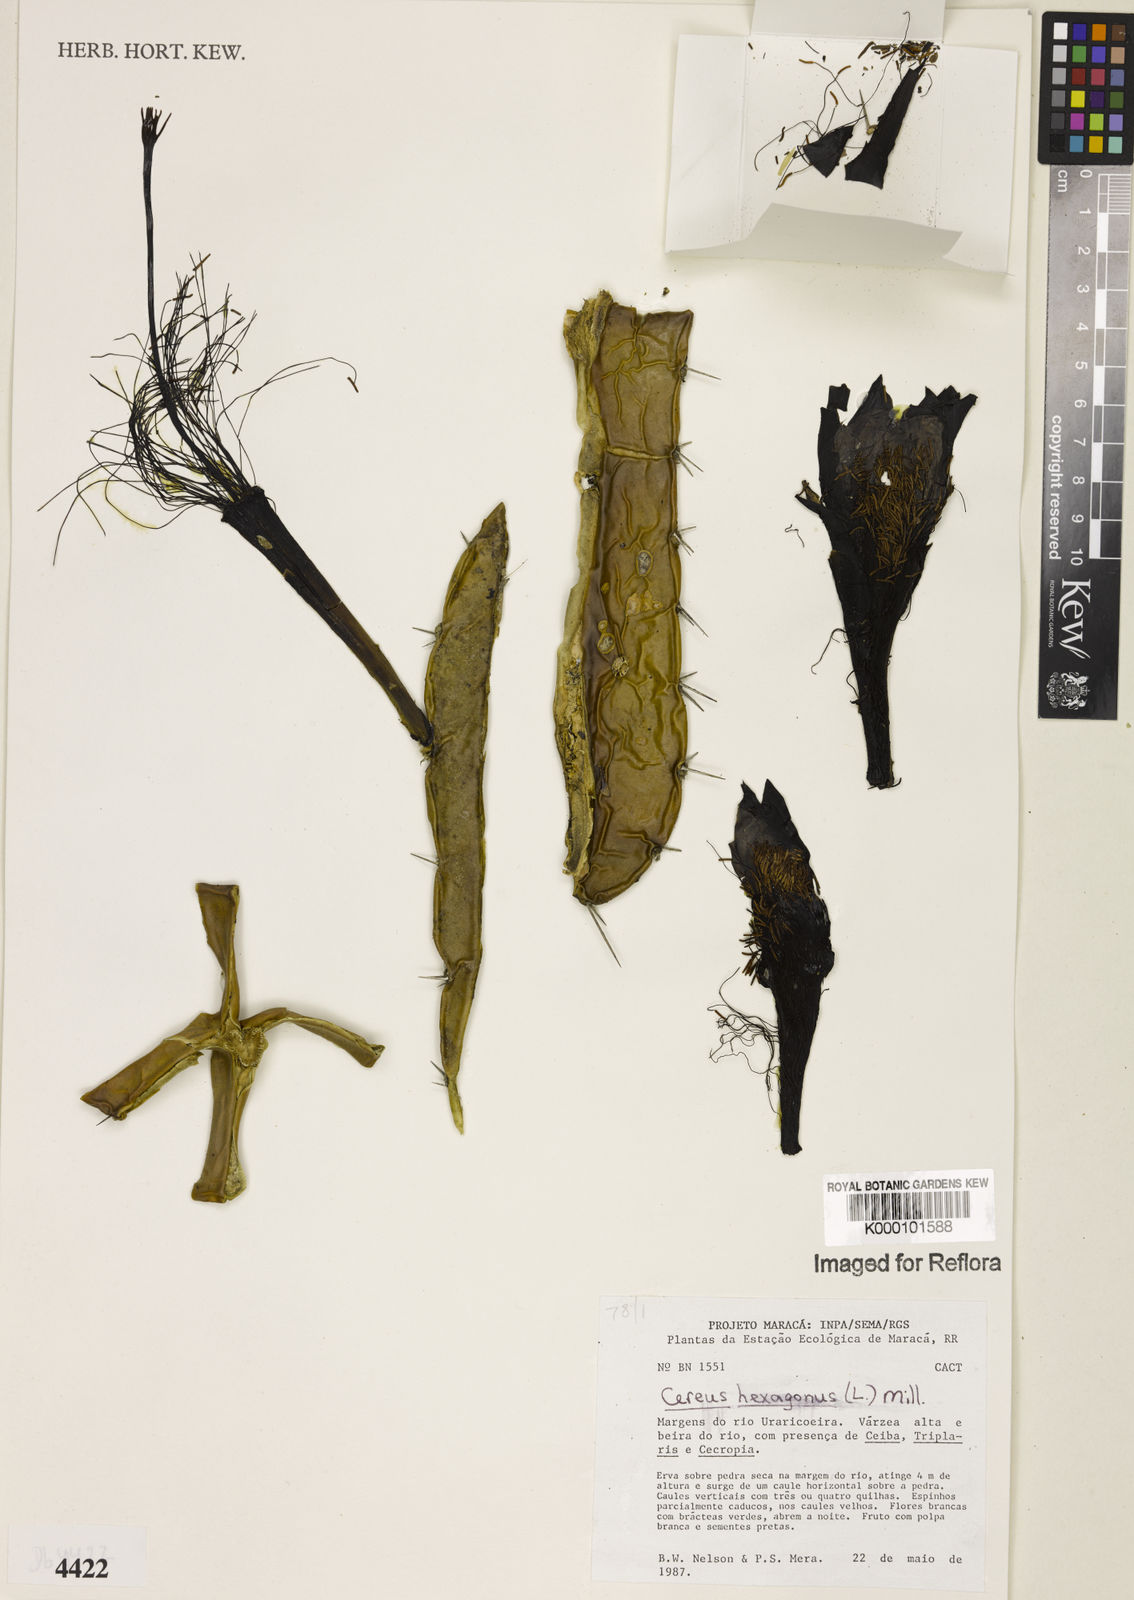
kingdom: Plantae
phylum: Tracheophyta
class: Magnoliopsida
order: Caryophyllales
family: Cactaceae
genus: Cereus
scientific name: Cereus hexagonus
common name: Lady of the night cactus
